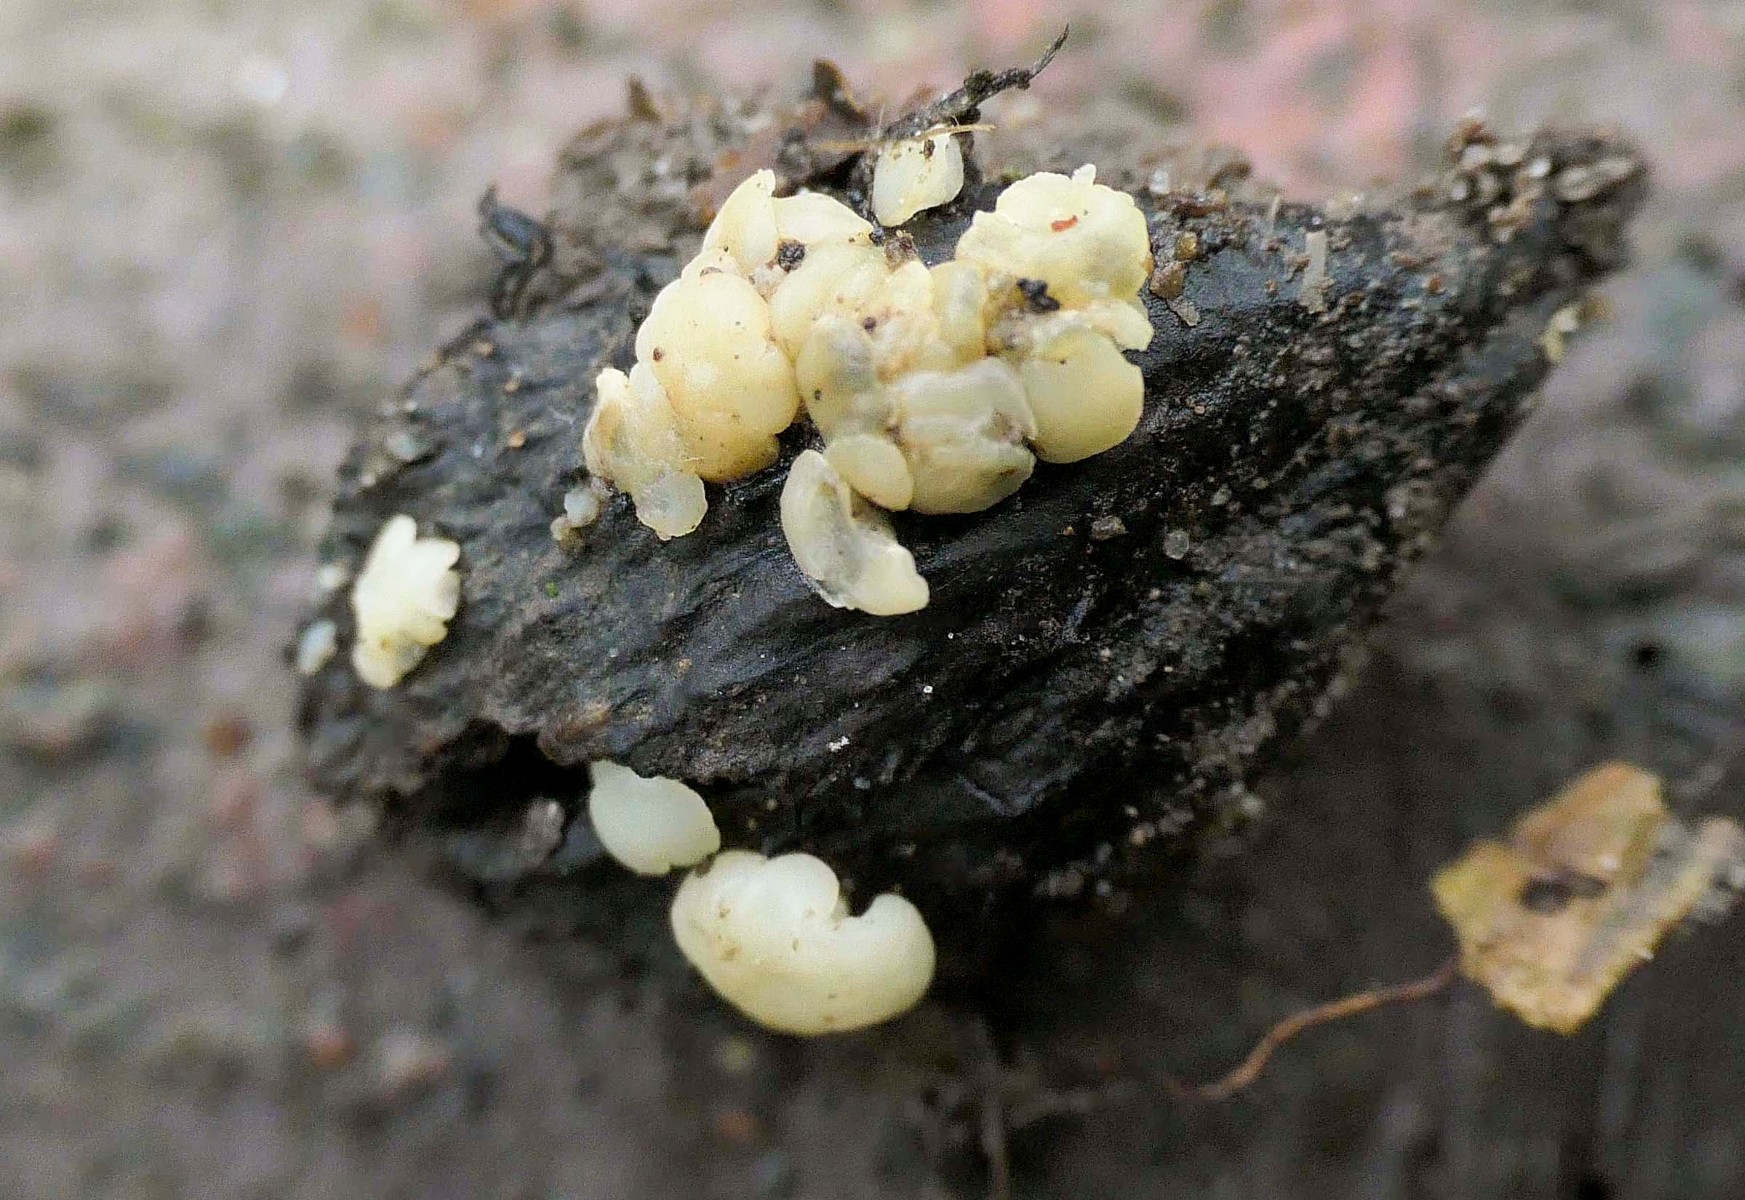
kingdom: Fungi
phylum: Ascomycota
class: Leotiomycetes
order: Helotiales
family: Helotiaceae
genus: Hymenoscyphus
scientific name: Hymenoscyphus fagineus
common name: vellugtende stilkskive
